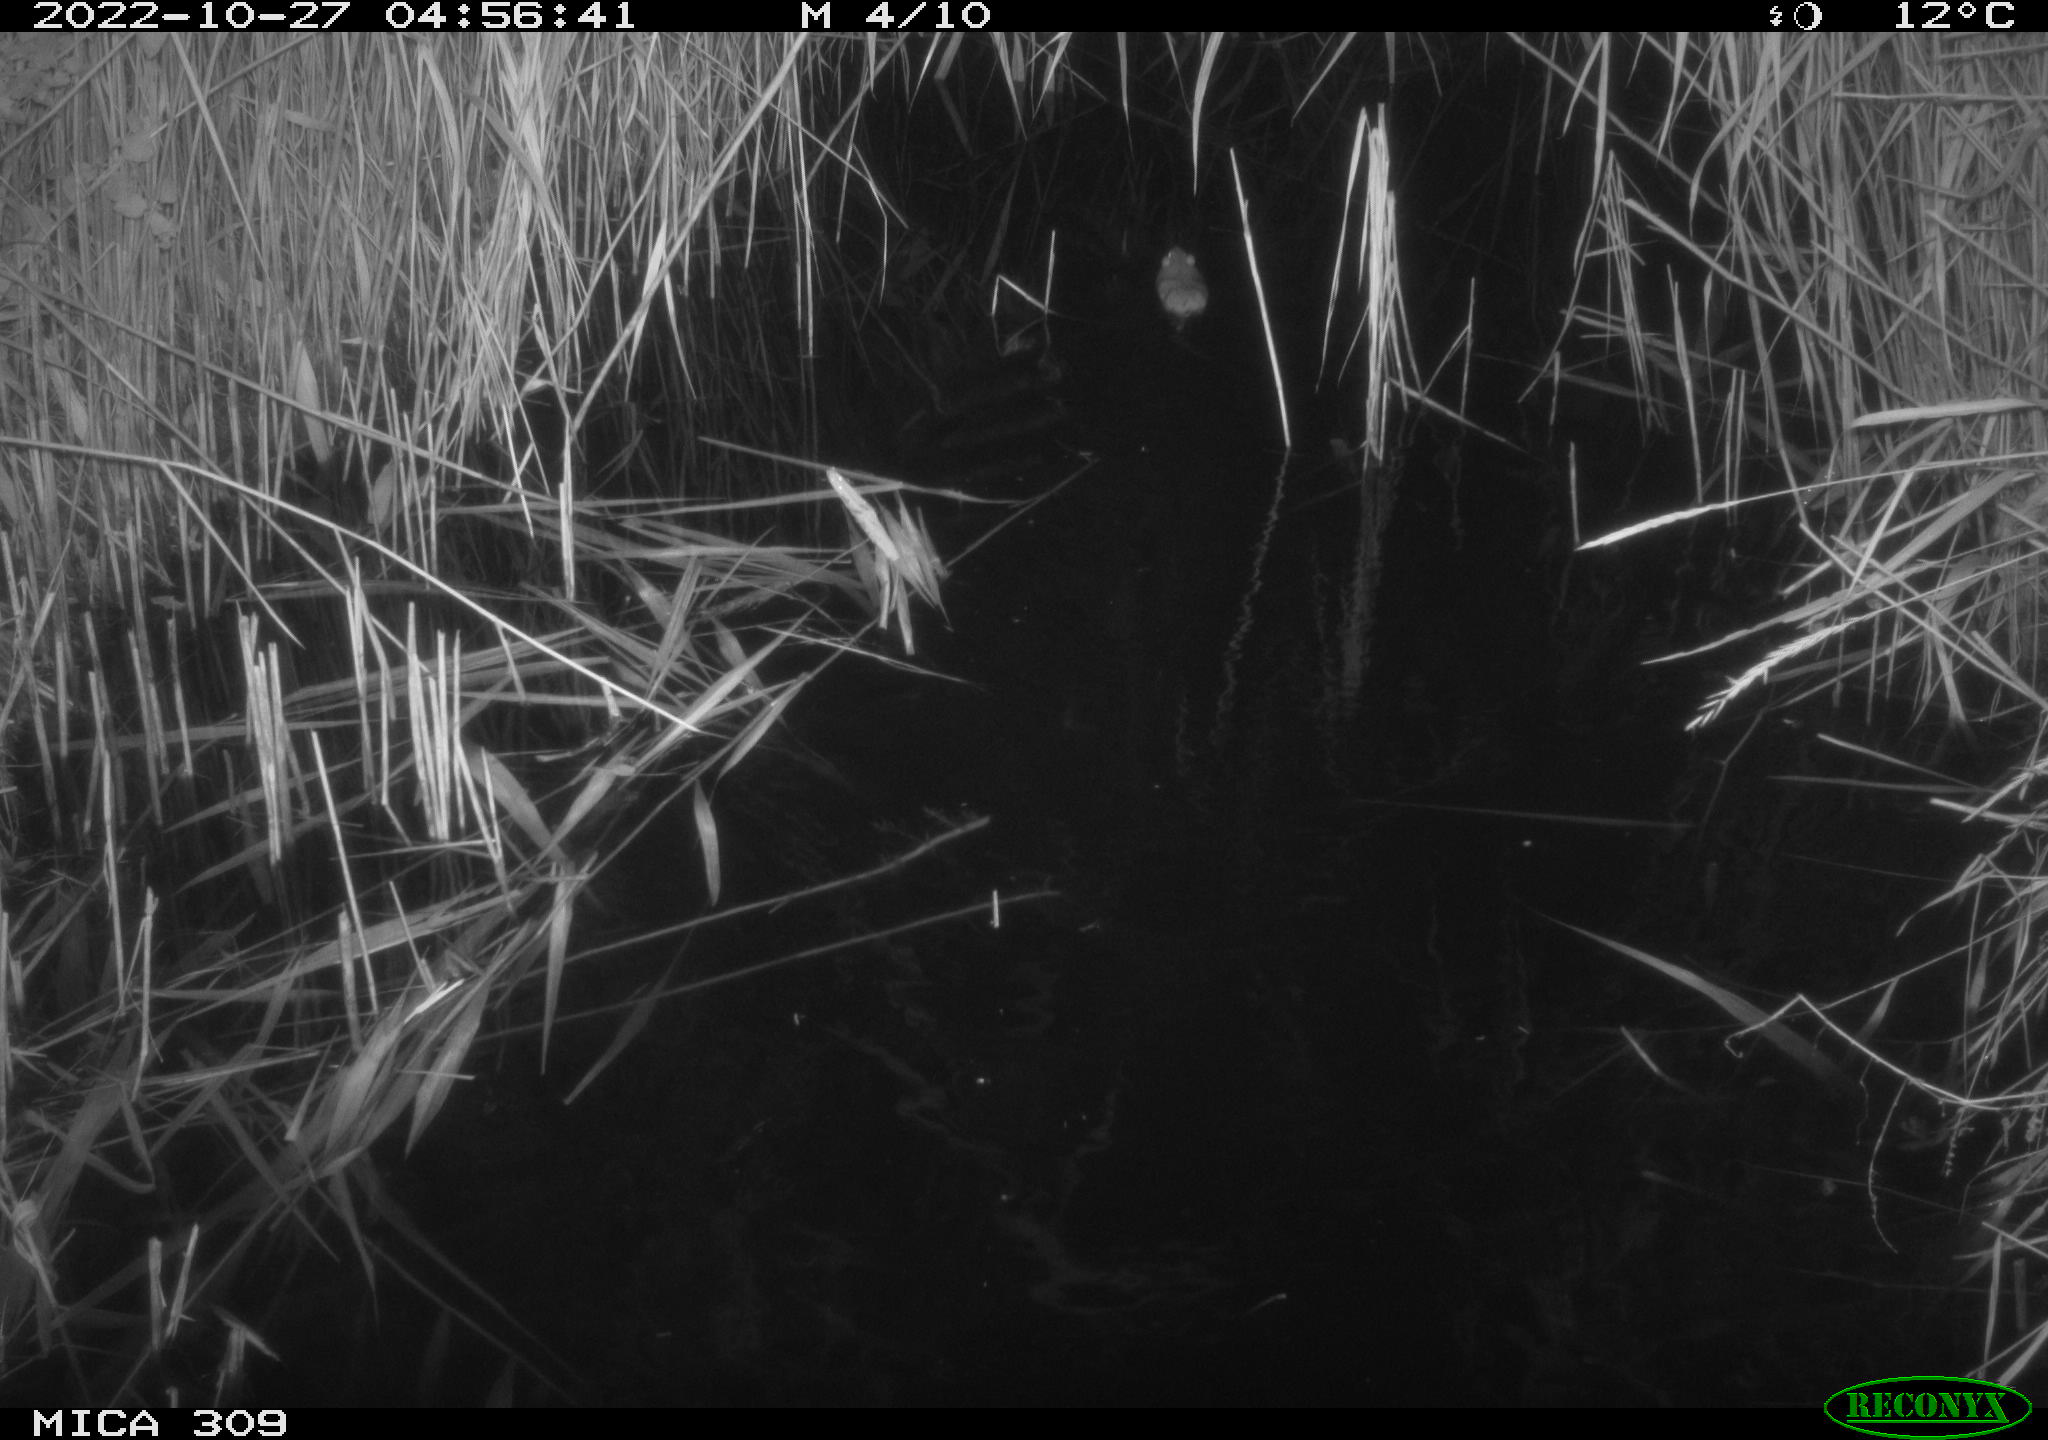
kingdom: Animalia
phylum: Chordata
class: Mammalia
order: Rodentia
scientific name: Rodentia
